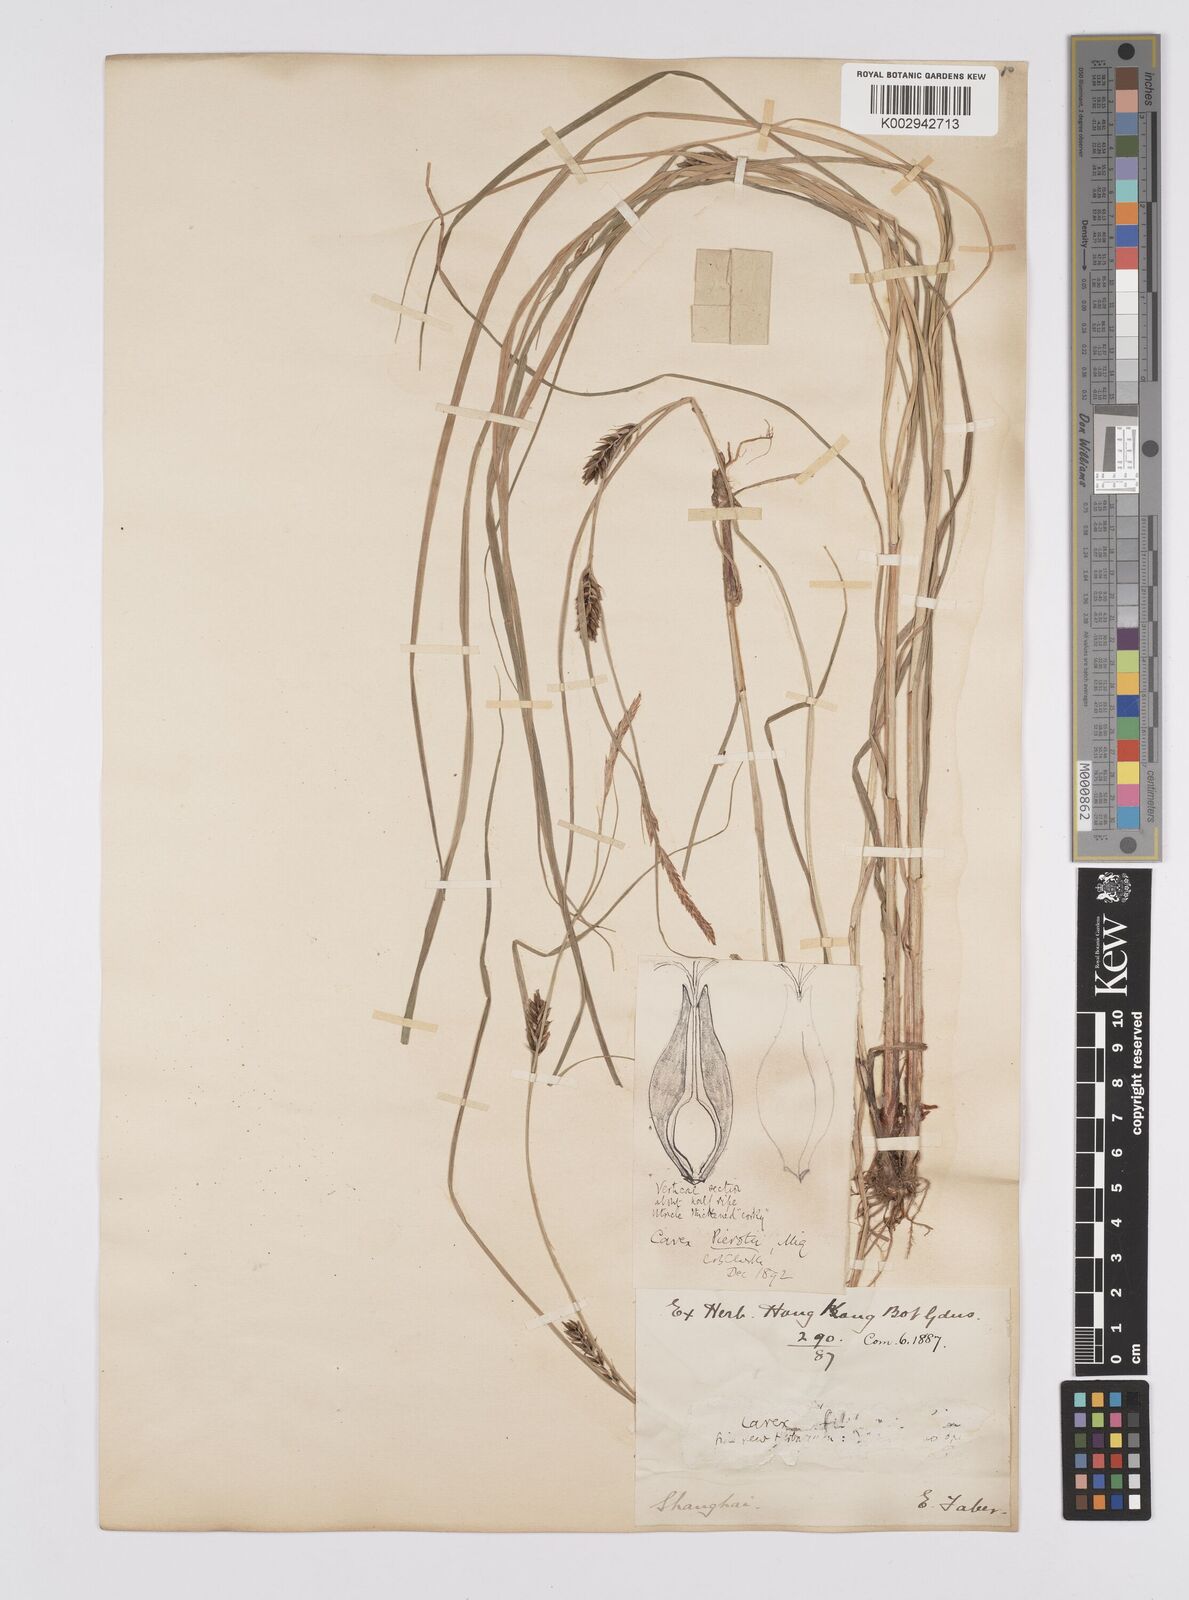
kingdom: Plantae
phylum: Tracheophyta
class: Liliopsida
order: Poales
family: Cyperaceae
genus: Carex
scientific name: Carex scabrifolia
